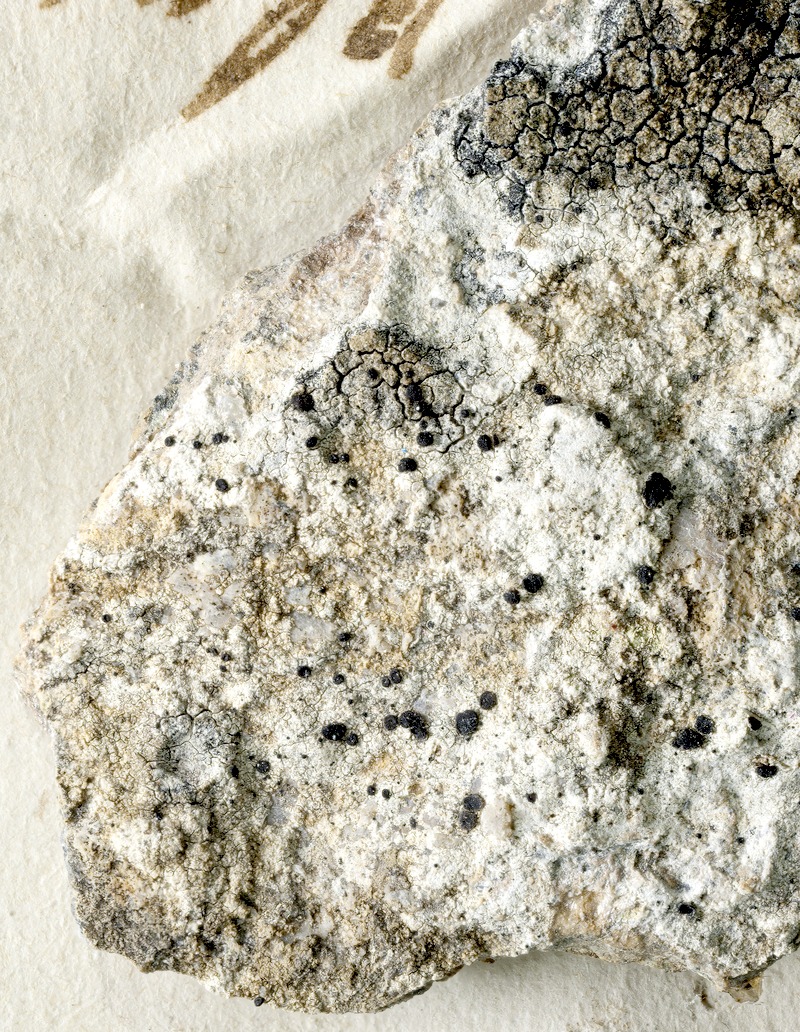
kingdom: Fungi
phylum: Ascomycota
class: Lecanoromycetes
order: Lecideales
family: Lecideaceae
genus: Clauzadea
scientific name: Clauzadea monticola
